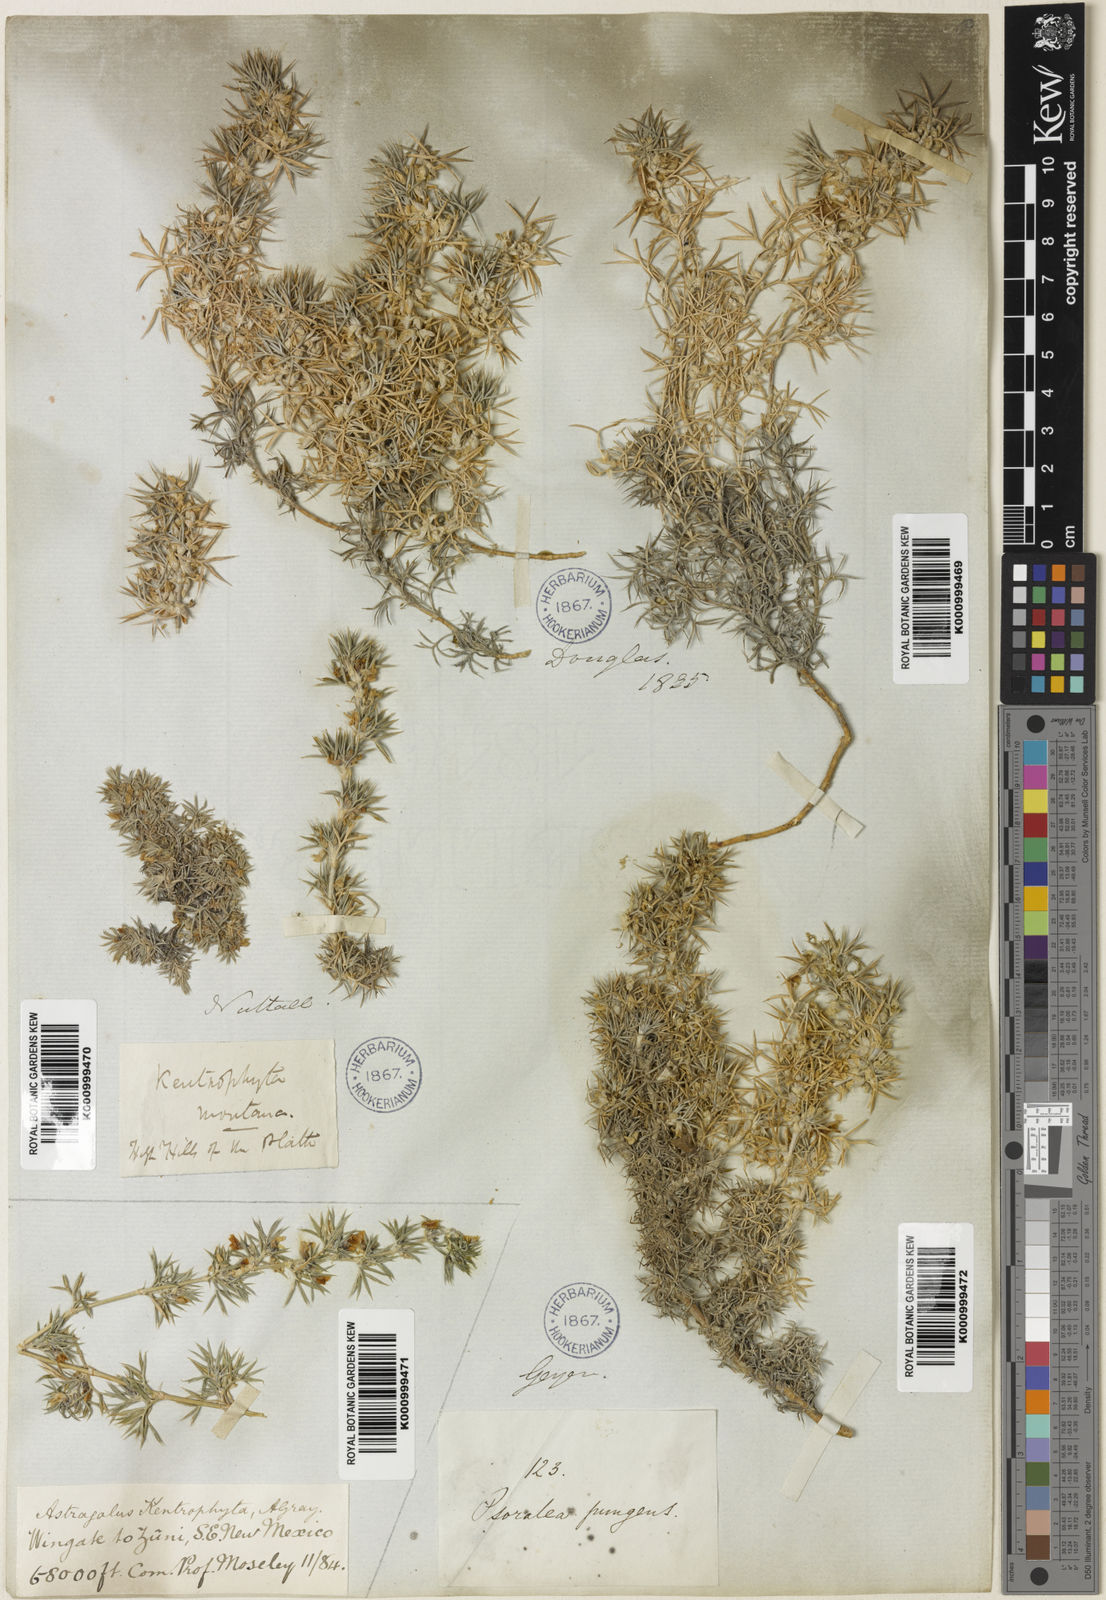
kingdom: Plantae
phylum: Tracheophyta
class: Magnoliopsida
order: Fabales
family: Fabaceae
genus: Astragalus
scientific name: Astragalus kentrophyta
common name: Prickly milk-vetch
